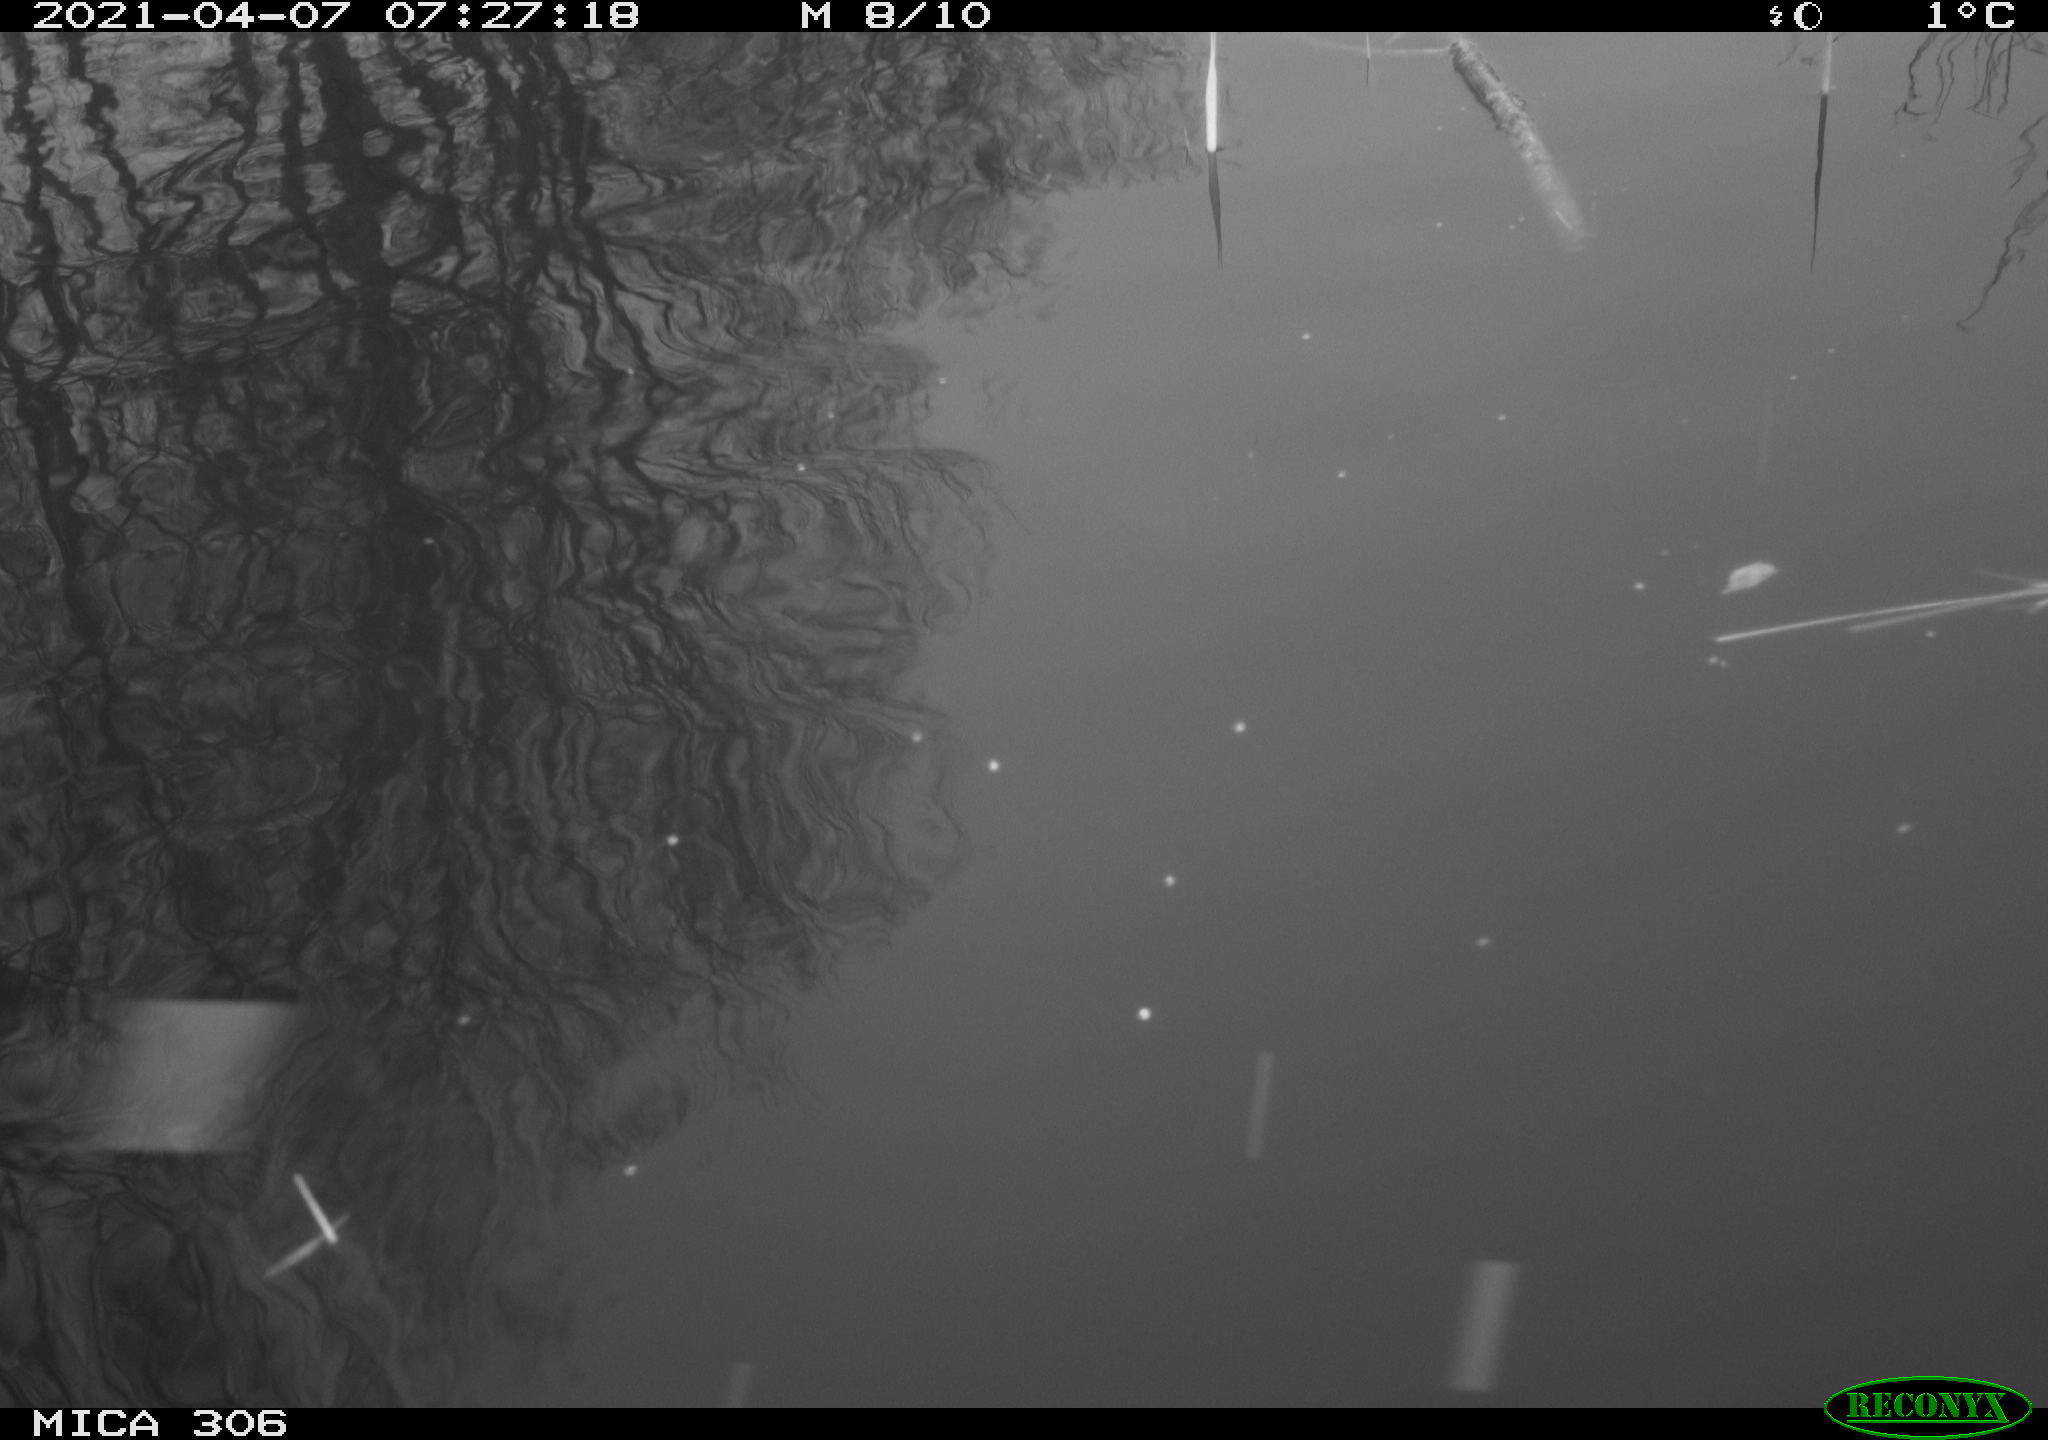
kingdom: Animalia
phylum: Chordata
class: Aves
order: Gruiformes
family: Rallidae
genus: Gallinula
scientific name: Gallinula chloropus
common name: Common moorhen
